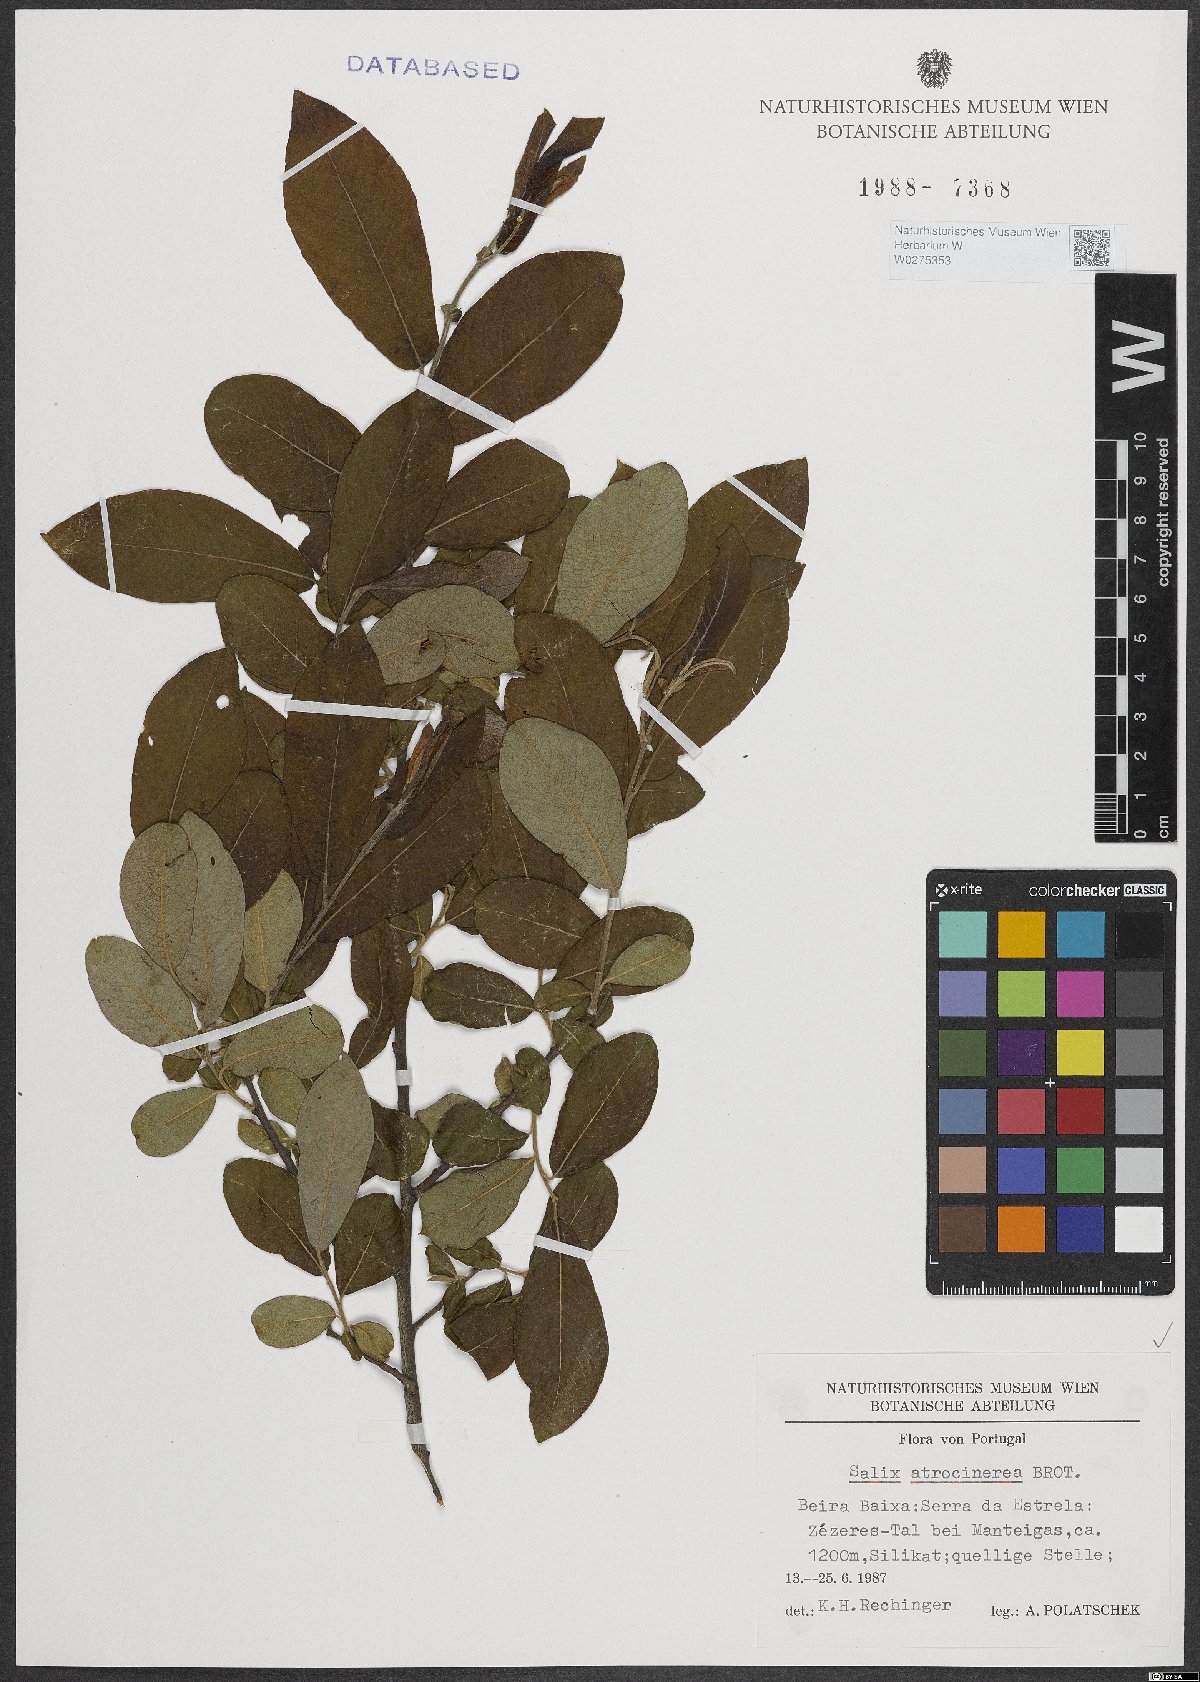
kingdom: Plantae
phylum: Tracheophyta
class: Magnoliopsida
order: Malpighiales
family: Salicaceae
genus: Salix
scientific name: Salix atrocinerea
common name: Rusty willow
